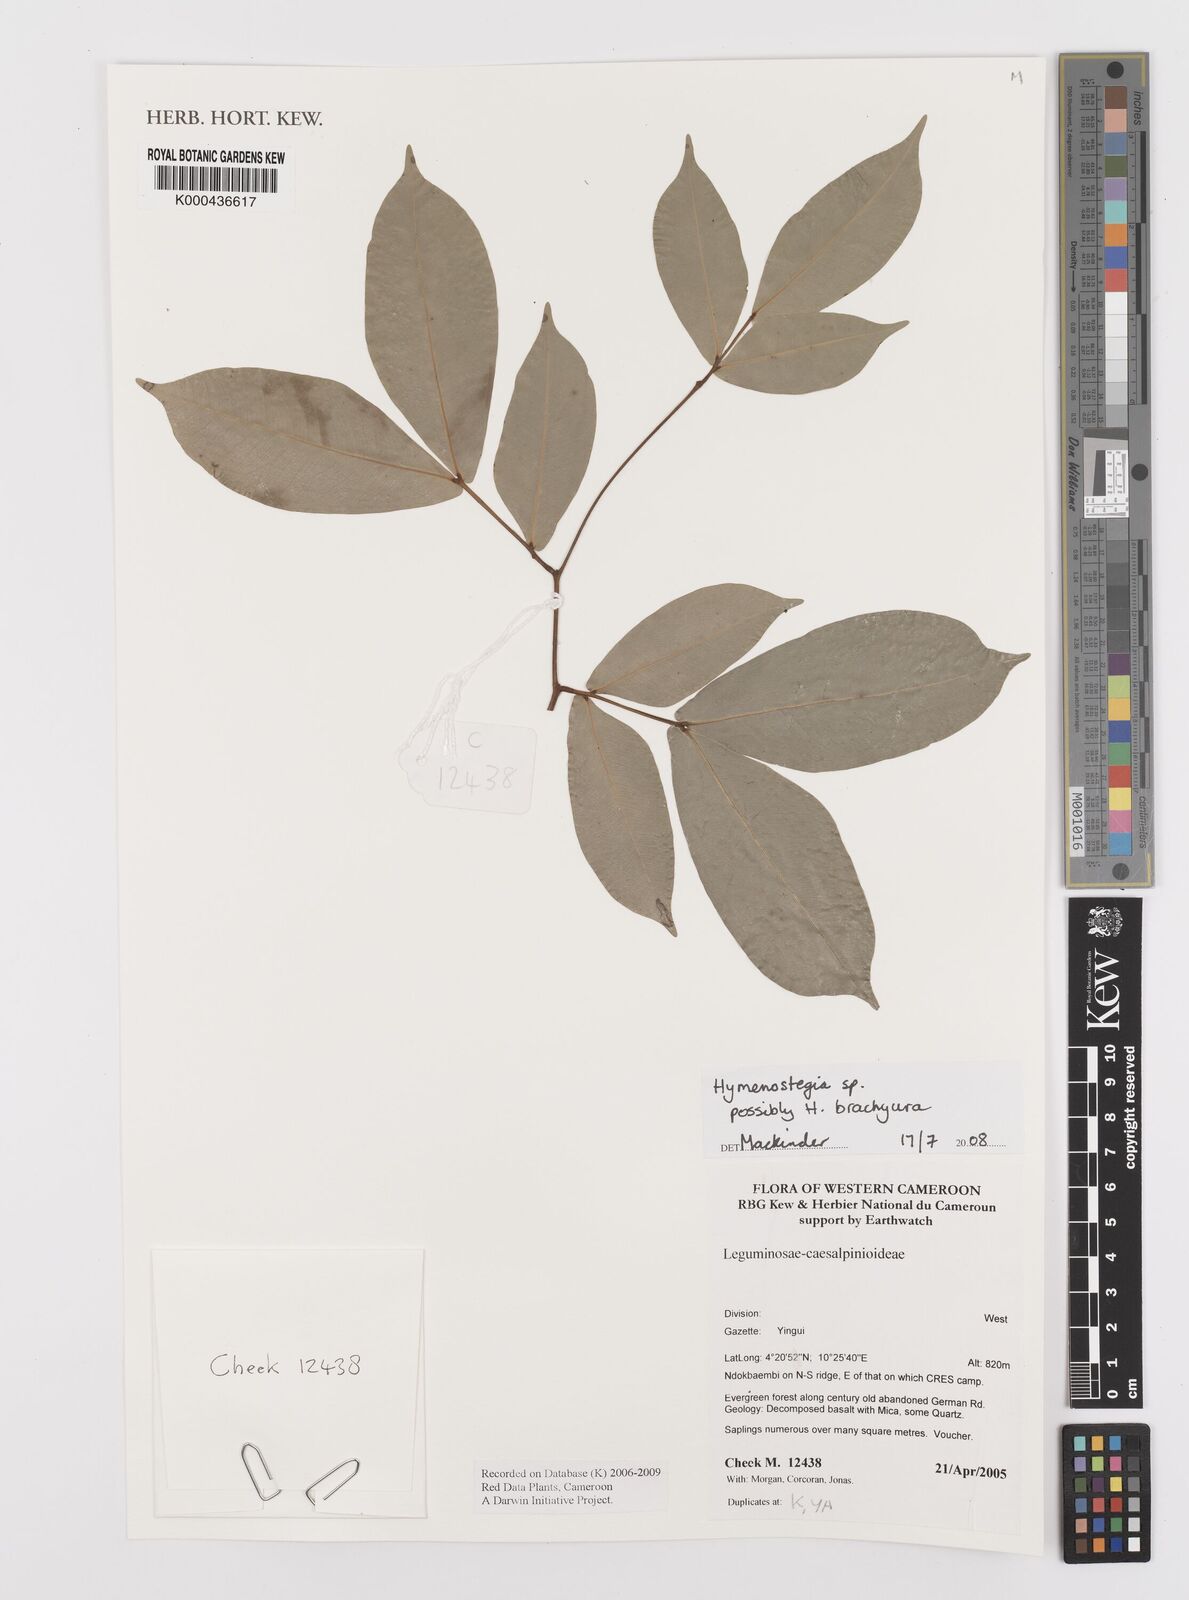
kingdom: Plantae
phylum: Tracheophyta
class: Magnoliopsida
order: Fabales
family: Fabaceae
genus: Hymenostegia
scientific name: Hymenostegia
